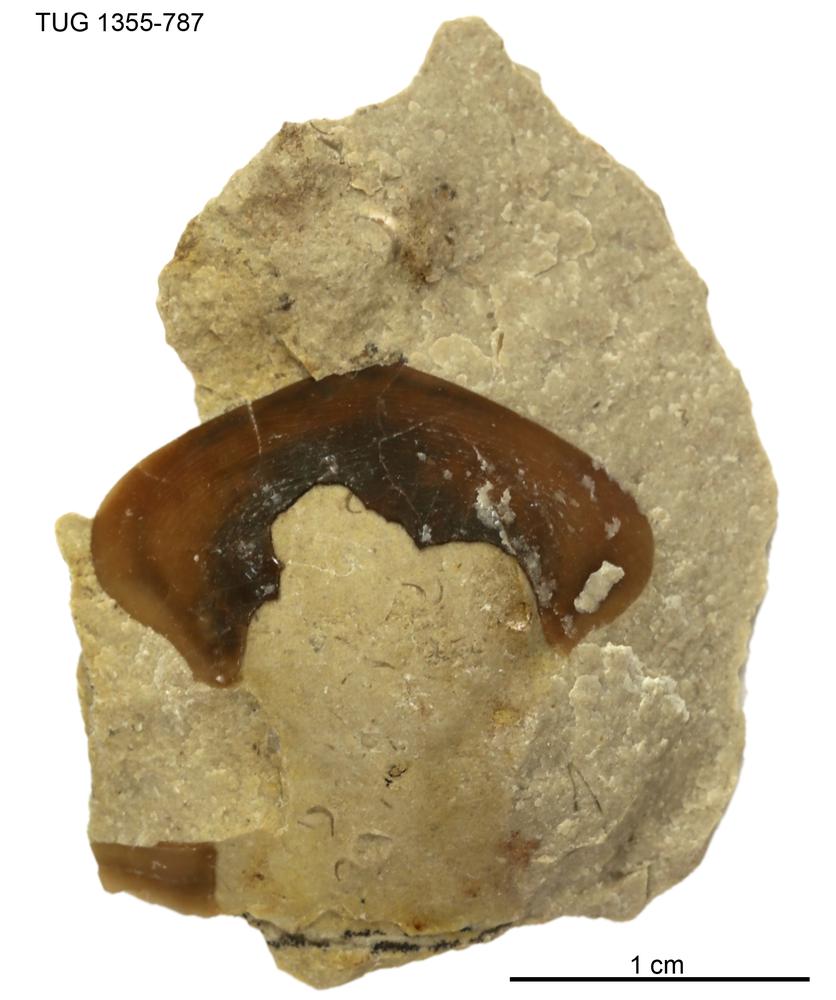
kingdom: Animalia
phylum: Arthropoda
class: Trilobita
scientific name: Trilobita
